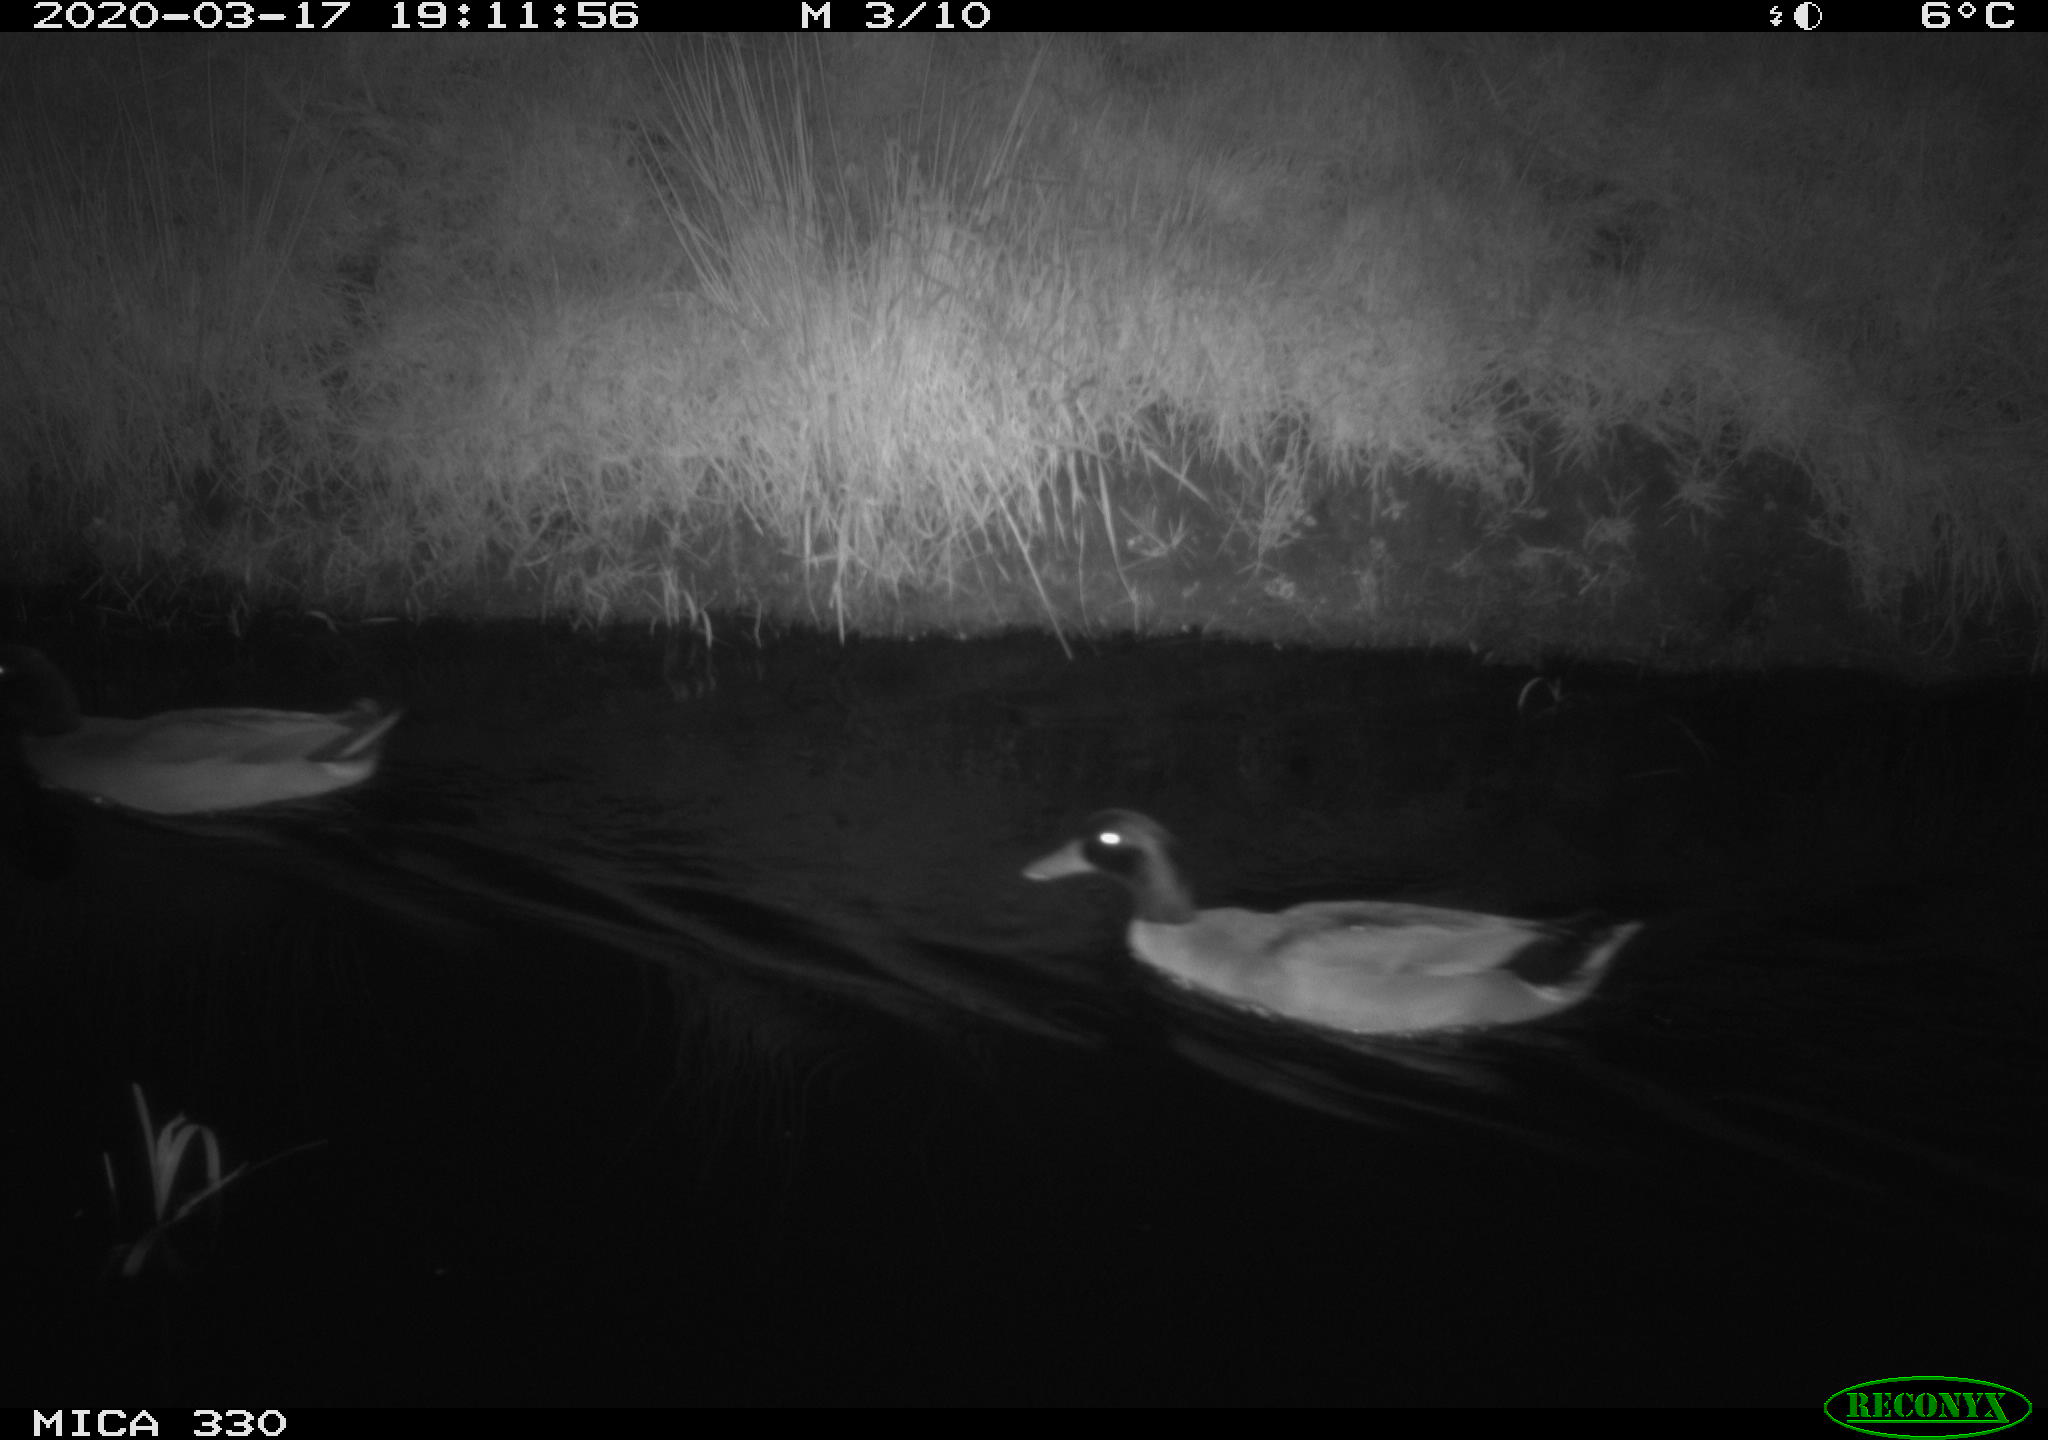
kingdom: Animalia
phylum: Chordata
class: Aves
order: Anseriformes
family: Anatidae
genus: Anas
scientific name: Anas platyrhynchos
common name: Mallard
